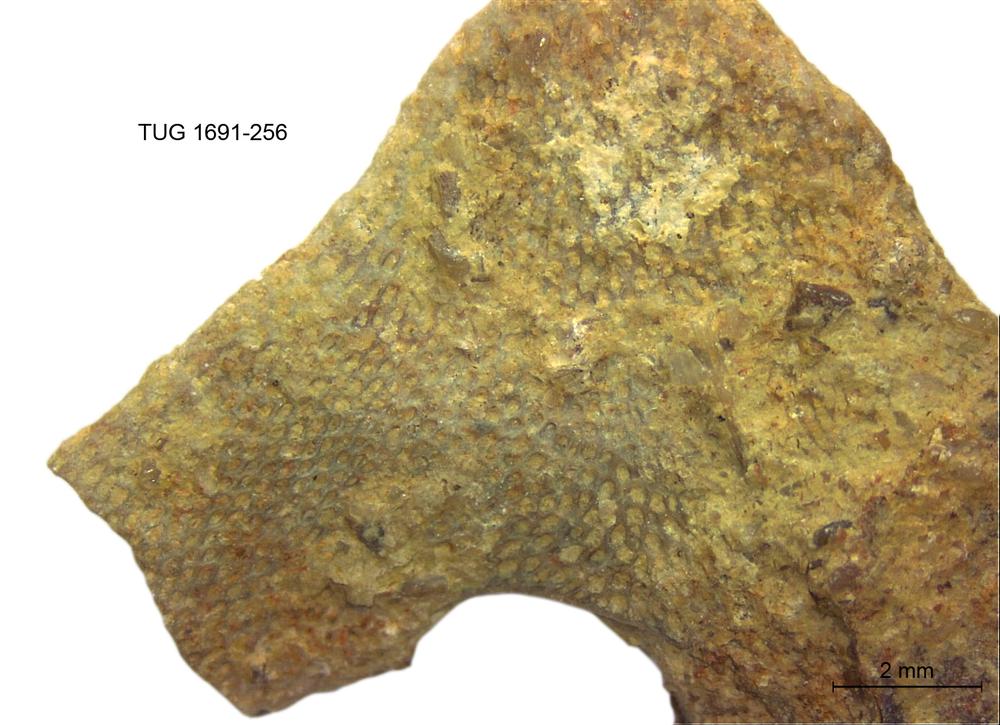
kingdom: Animalia
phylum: Bryozoa
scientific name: Bryozoa
